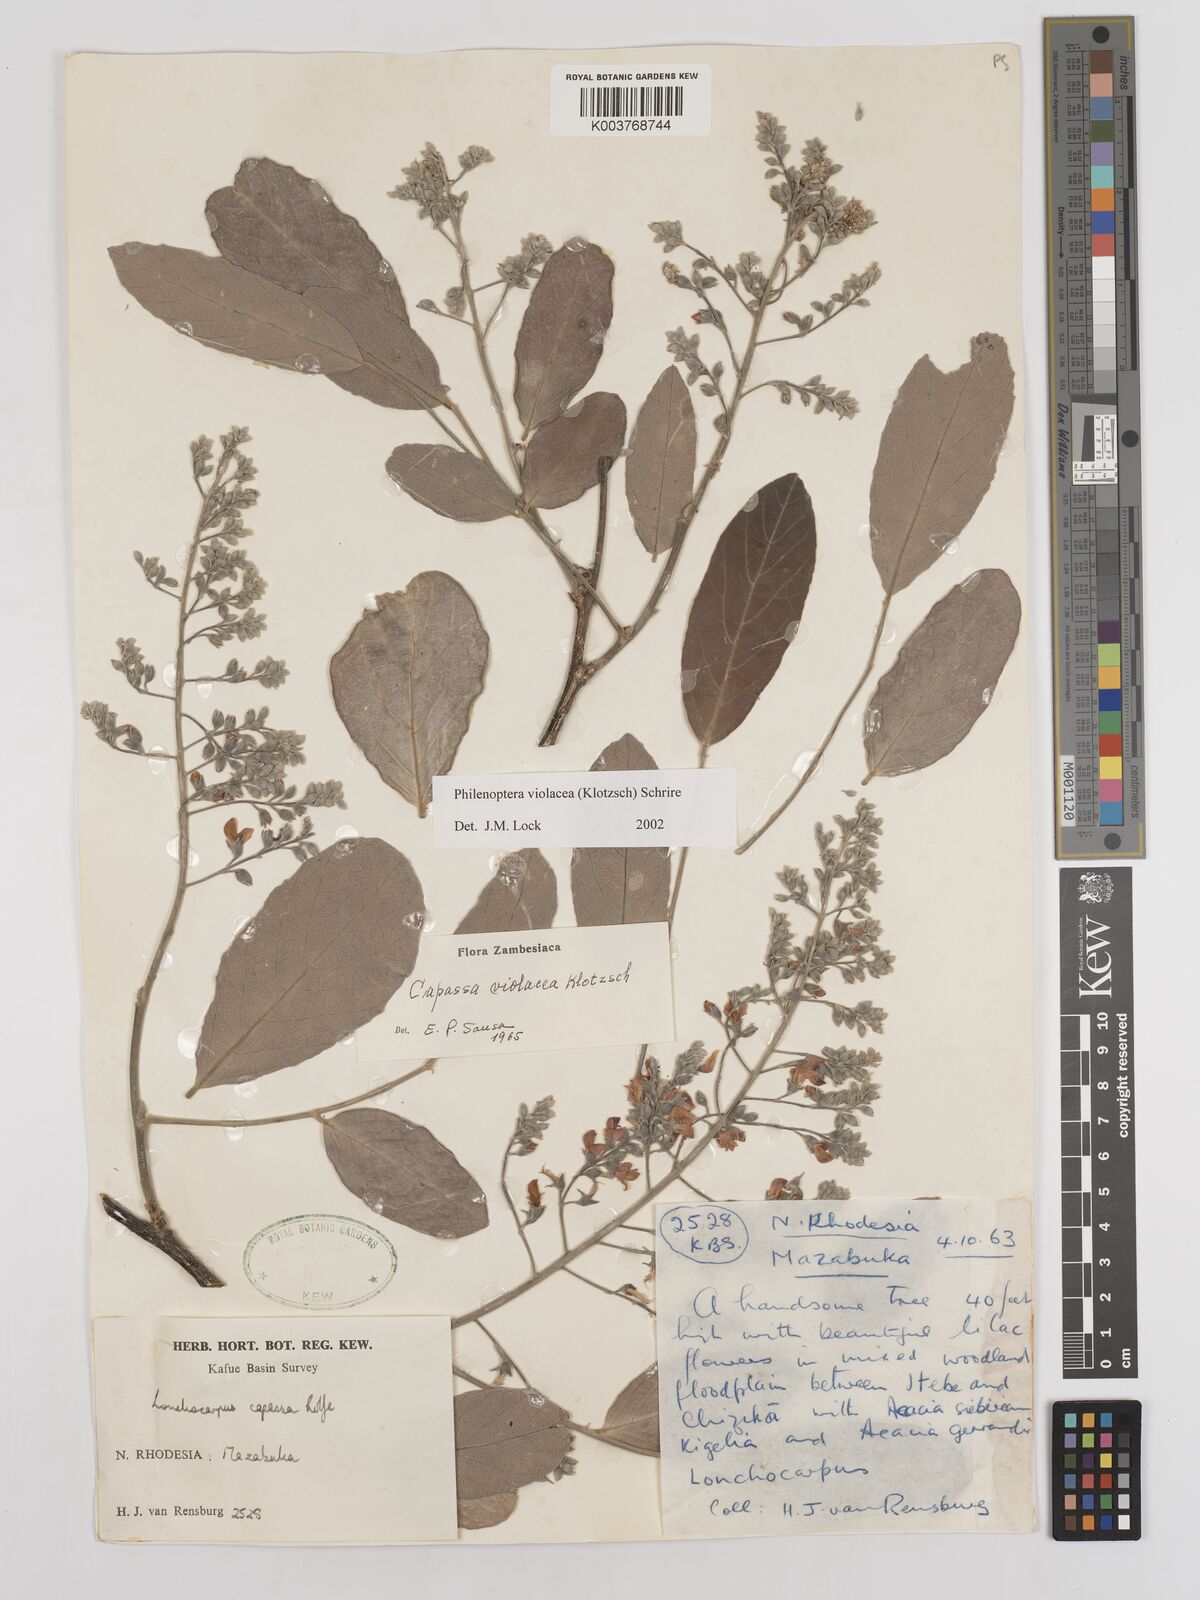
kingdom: Plantae
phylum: Tracheophyta
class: Magnoliopsida
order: Fabales
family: Fabaceae
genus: Philenoptera
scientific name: Philenoptera violacea
